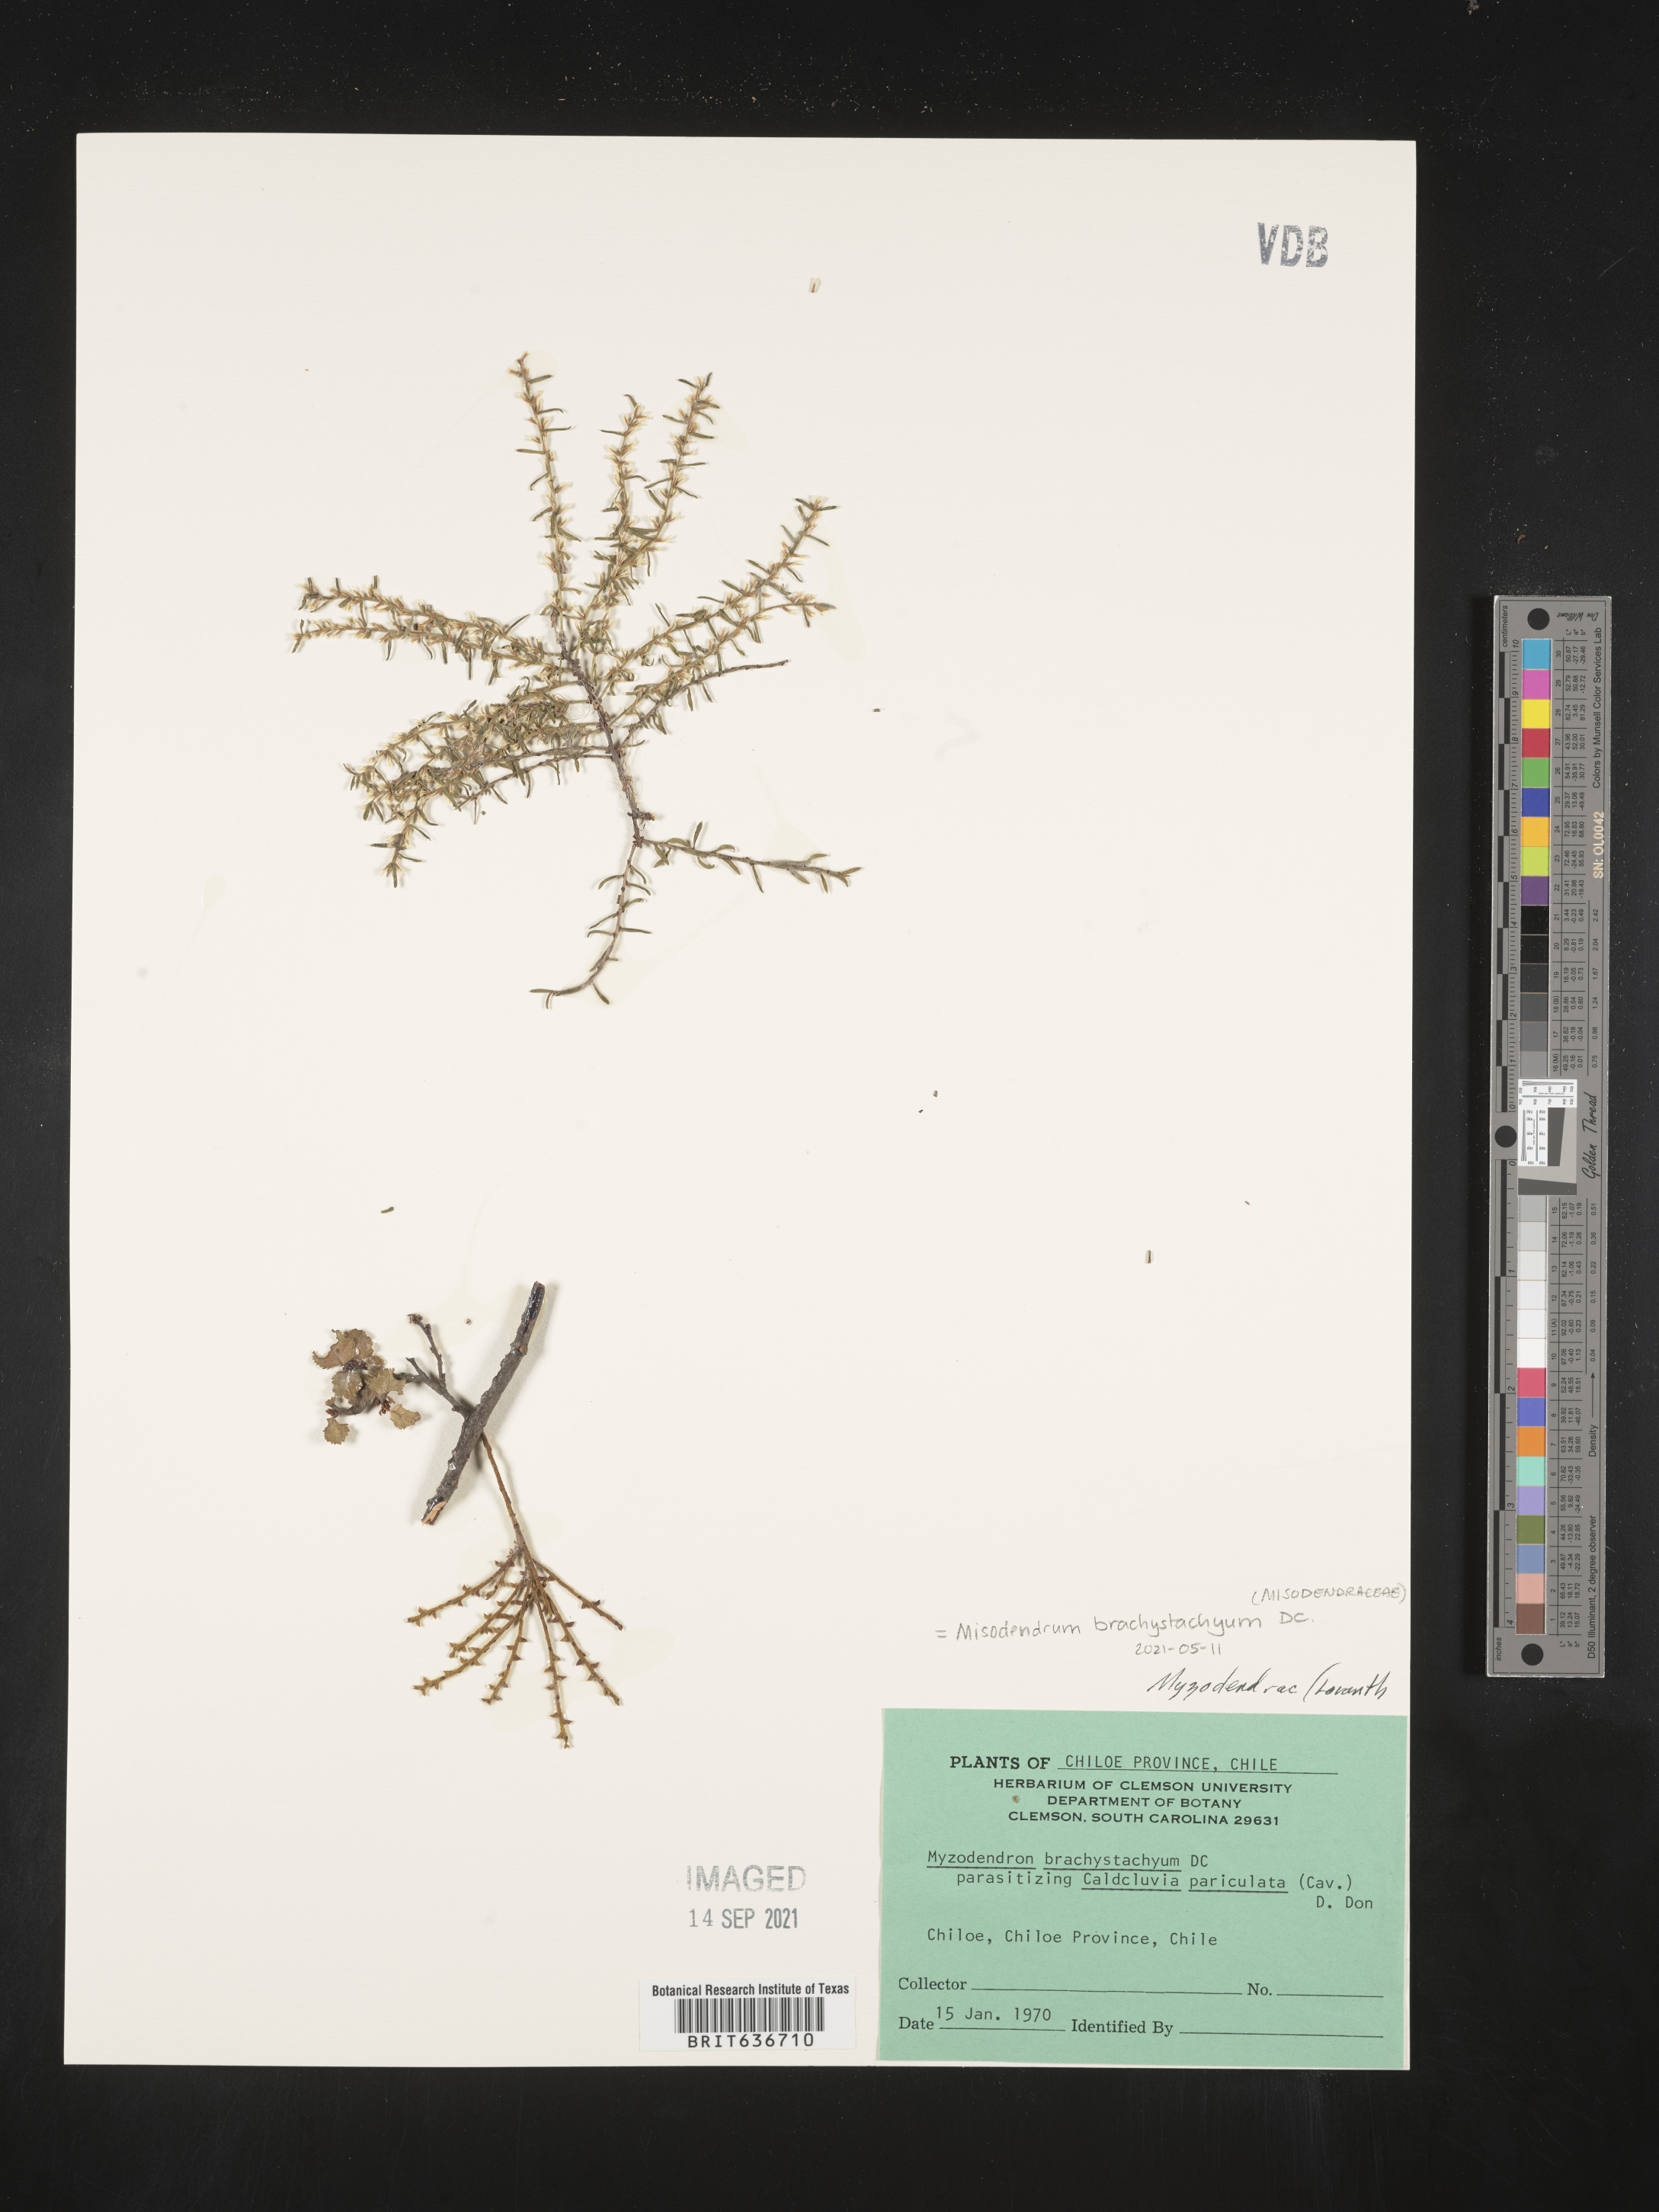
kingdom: Plantae
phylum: Tracheophyta
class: Magnoliopsida
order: Santalales
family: Misodendraceae
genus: Misodendrum
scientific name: Misodendrum brachystachyum
